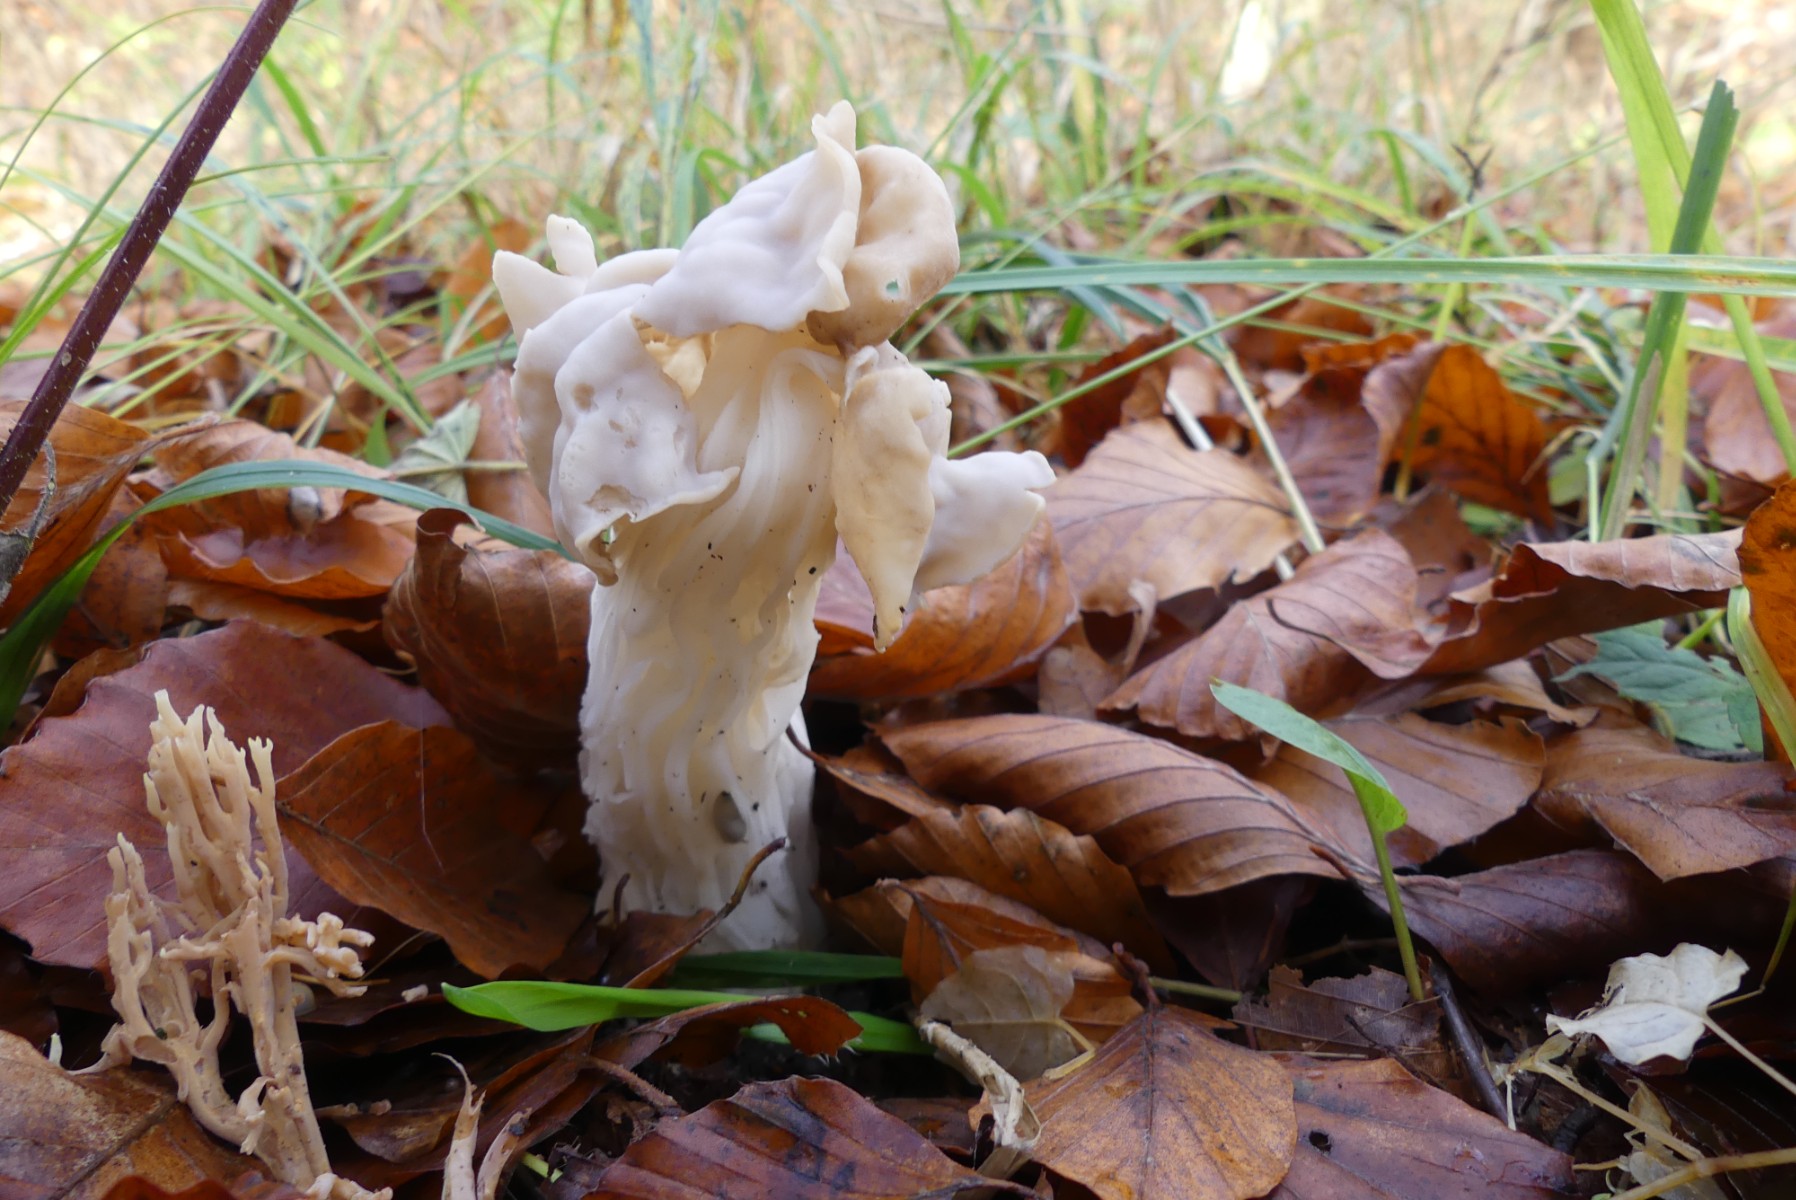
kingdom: Fungi
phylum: Ascomycota
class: Pezizomycetes
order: Pezizales
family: Helvellaceae
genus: Helvella
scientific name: Helvella crispa
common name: kruset foldhat
